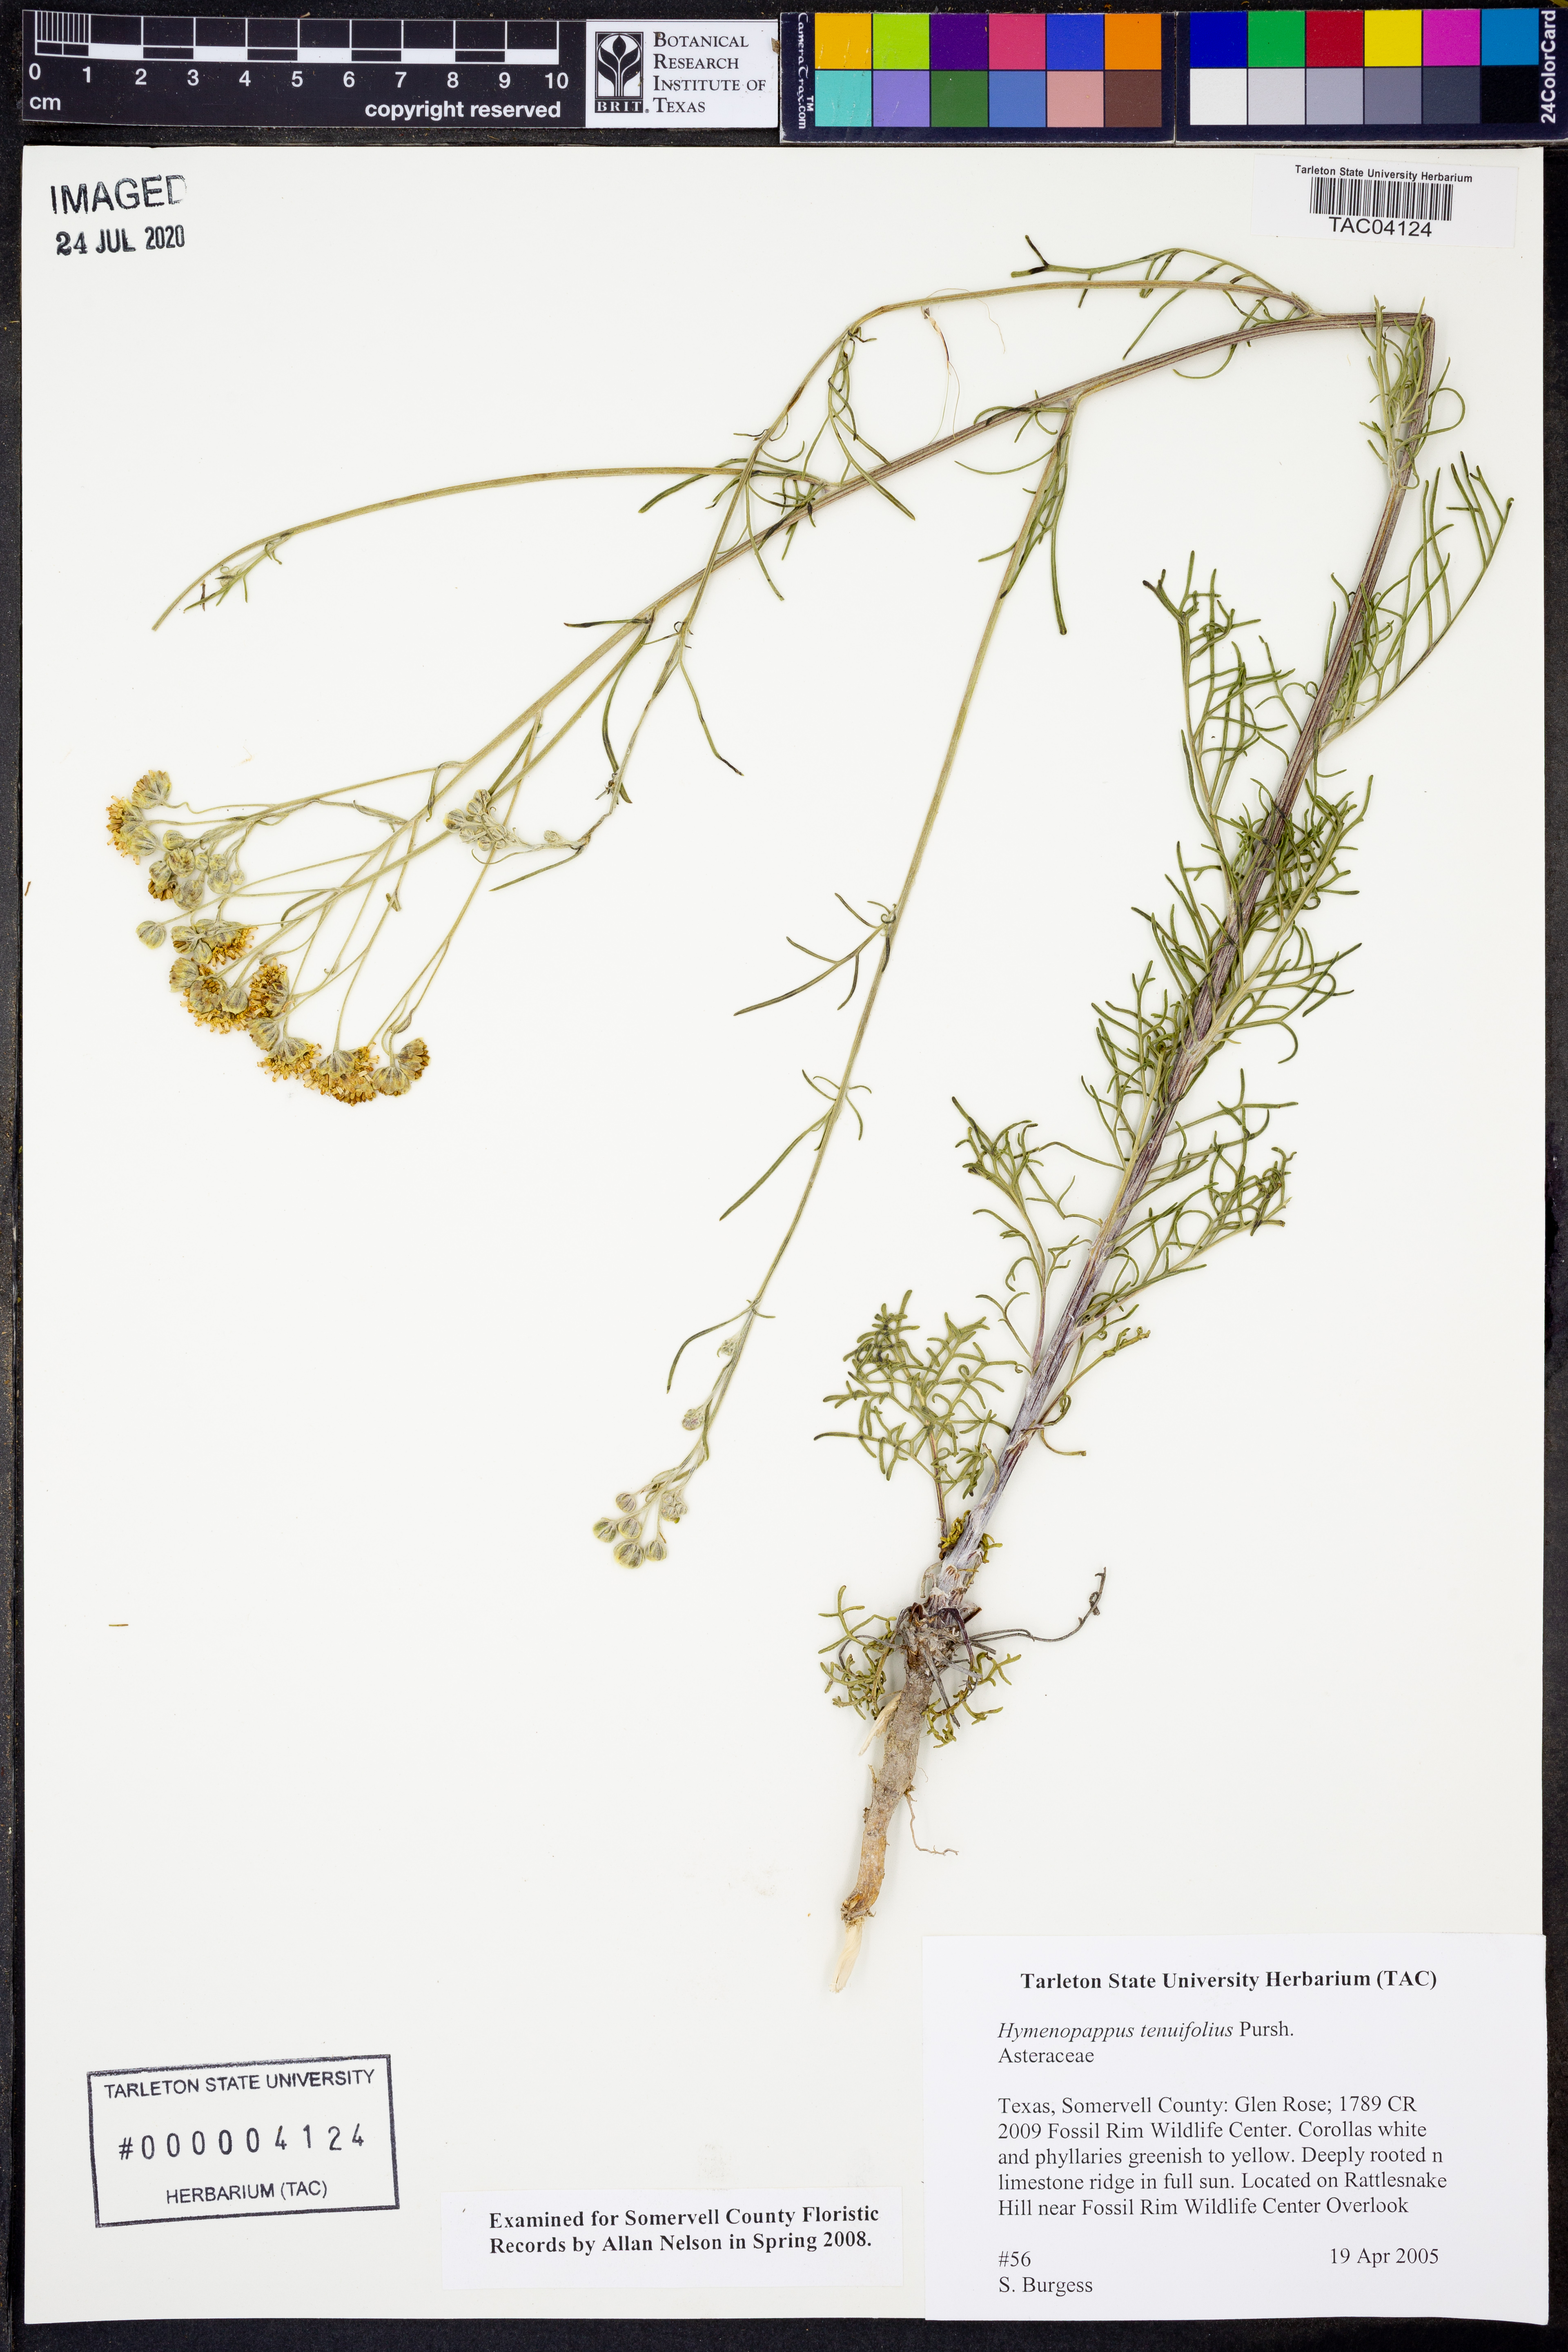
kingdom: Plantae
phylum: Tracheophyta
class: Magnoliopsida
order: Asterales
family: Asteraceae
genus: Hymenopappus
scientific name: Hymenopappus tenuifolius
